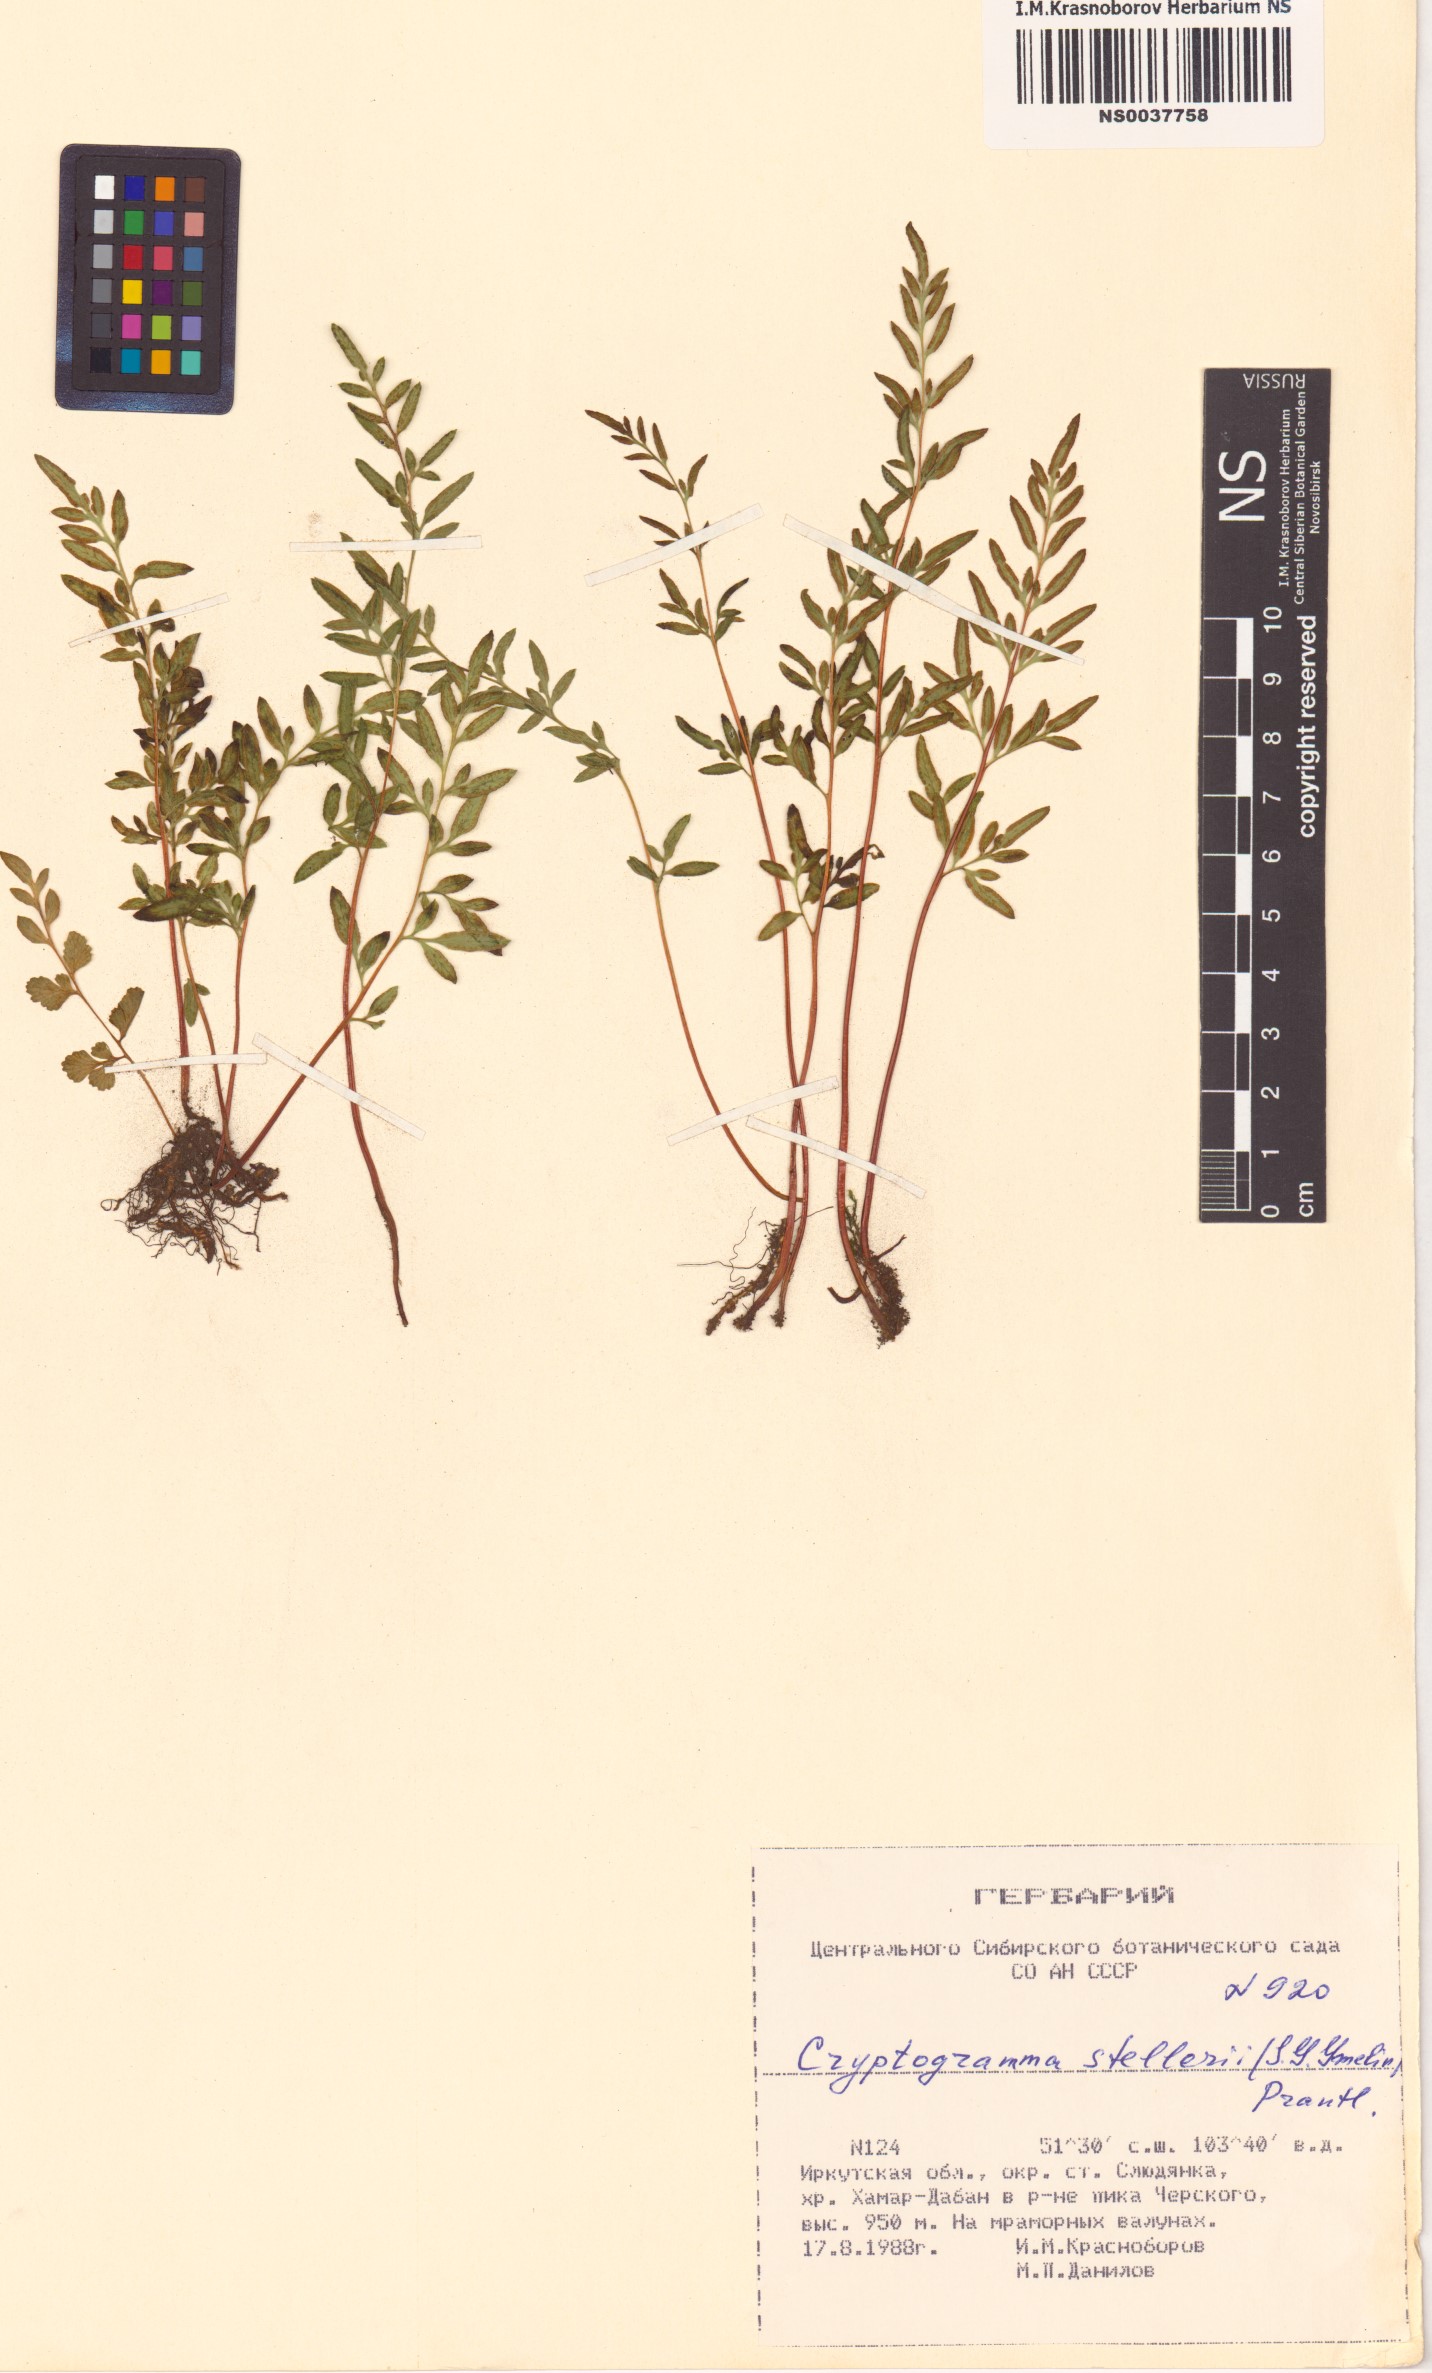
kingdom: Plantae
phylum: Tracheophyta
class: Polypodiopsida
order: Polypodiales
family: Pteridaceae
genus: Cryptogramma
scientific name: Cryptogramma stelleri
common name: Cliff-brake
